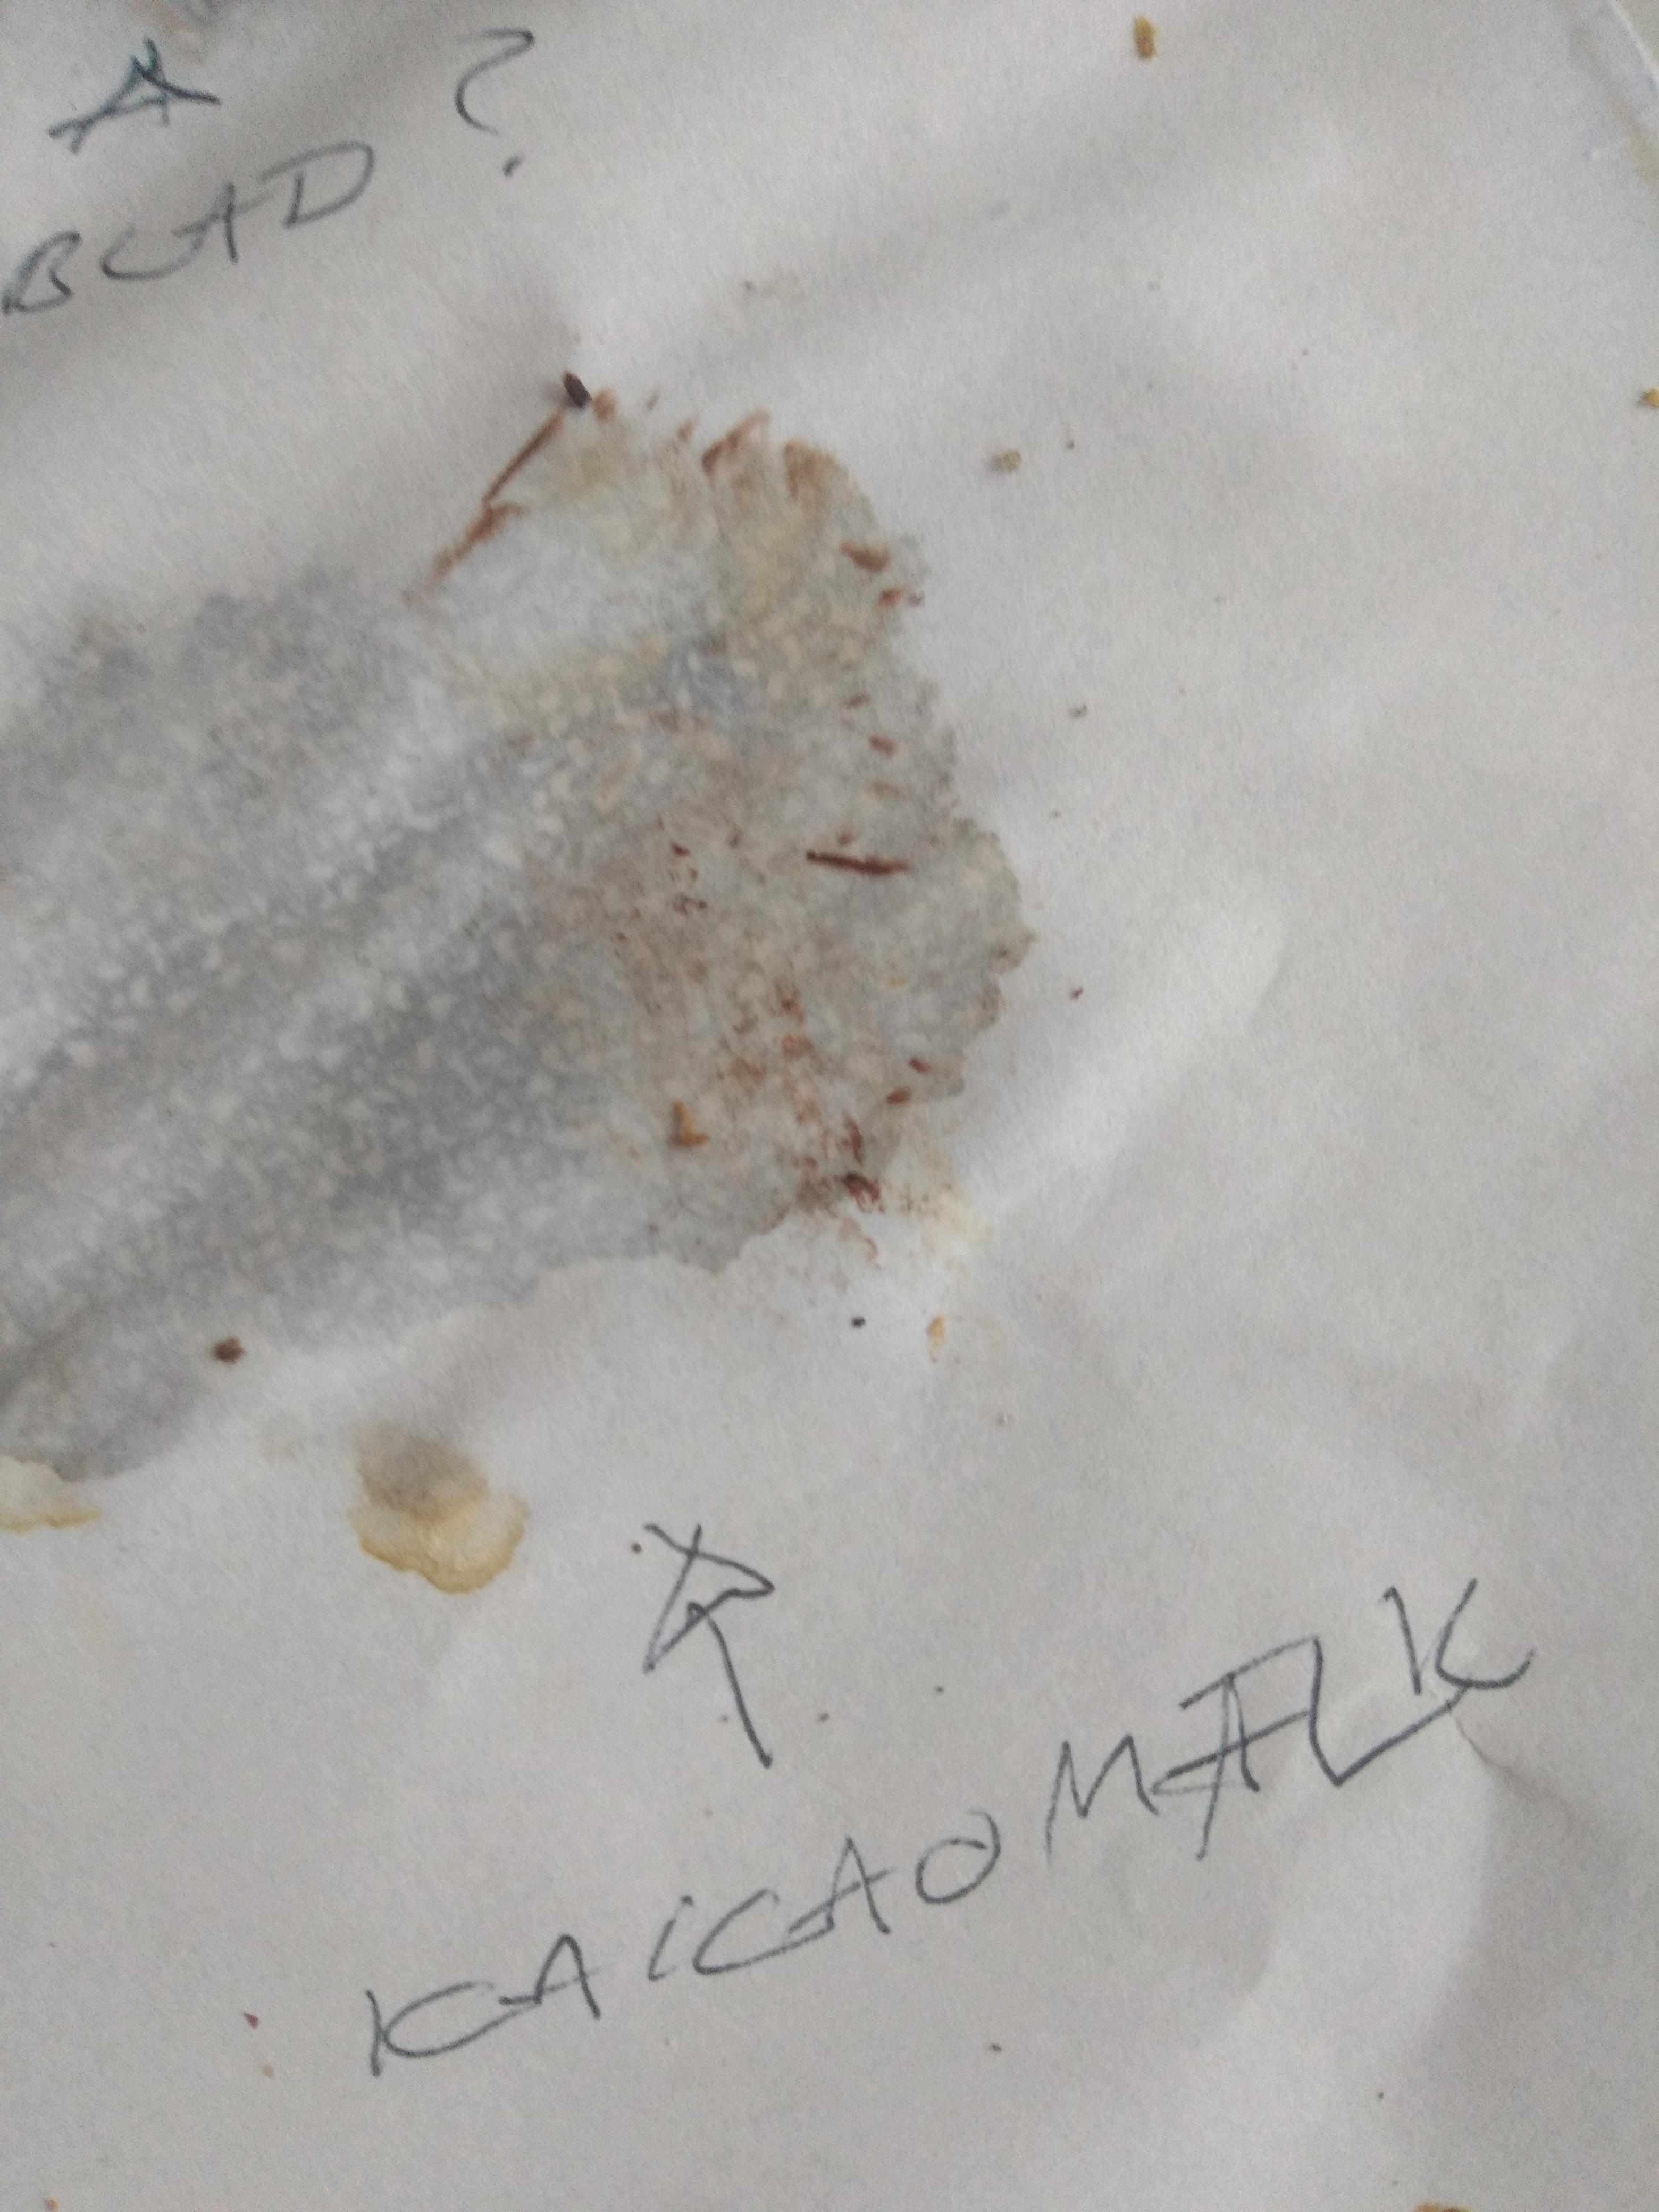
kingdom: Fungi
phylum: Basidiomycota
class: Agaricomycetes
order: Agaricales
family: Cortinariaceae
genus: Cortinarius
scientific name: Cortinarius
